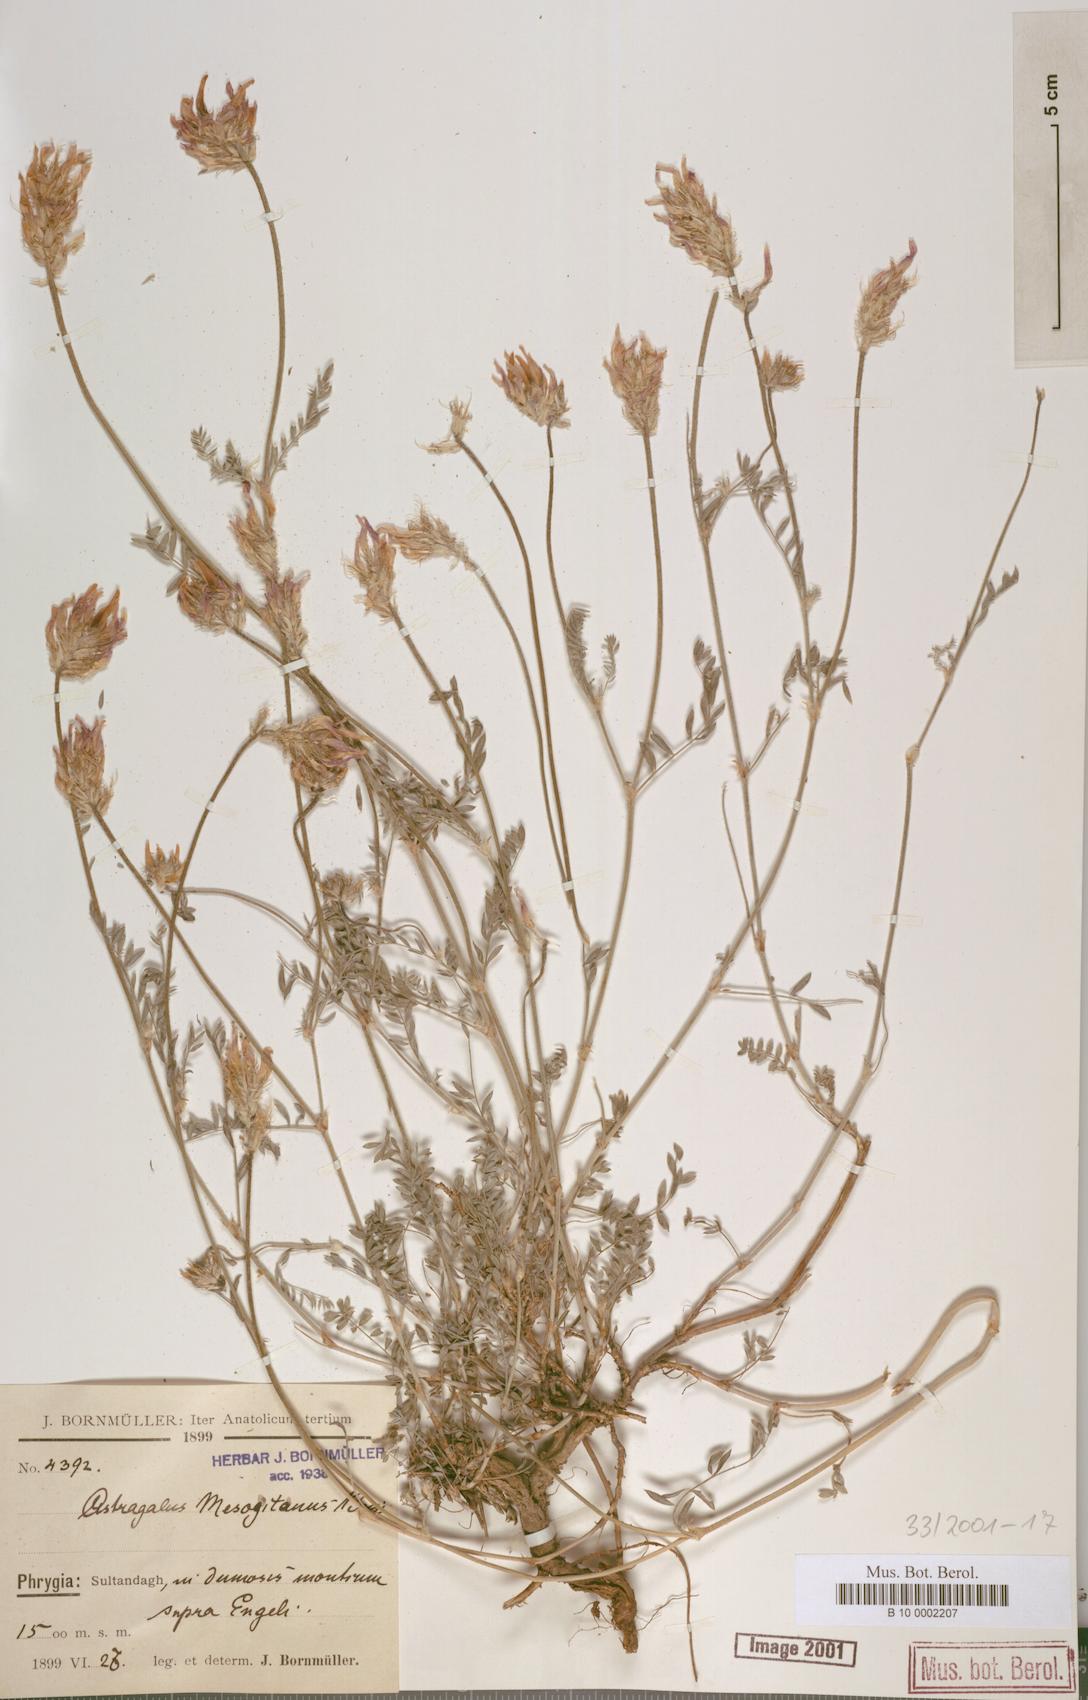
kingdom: Plantae
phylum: Tracheophyta
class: Magnoliopsida
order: Fabales
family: Fabaceae
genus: Astragalus
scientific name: Astragalus mesogitanus
